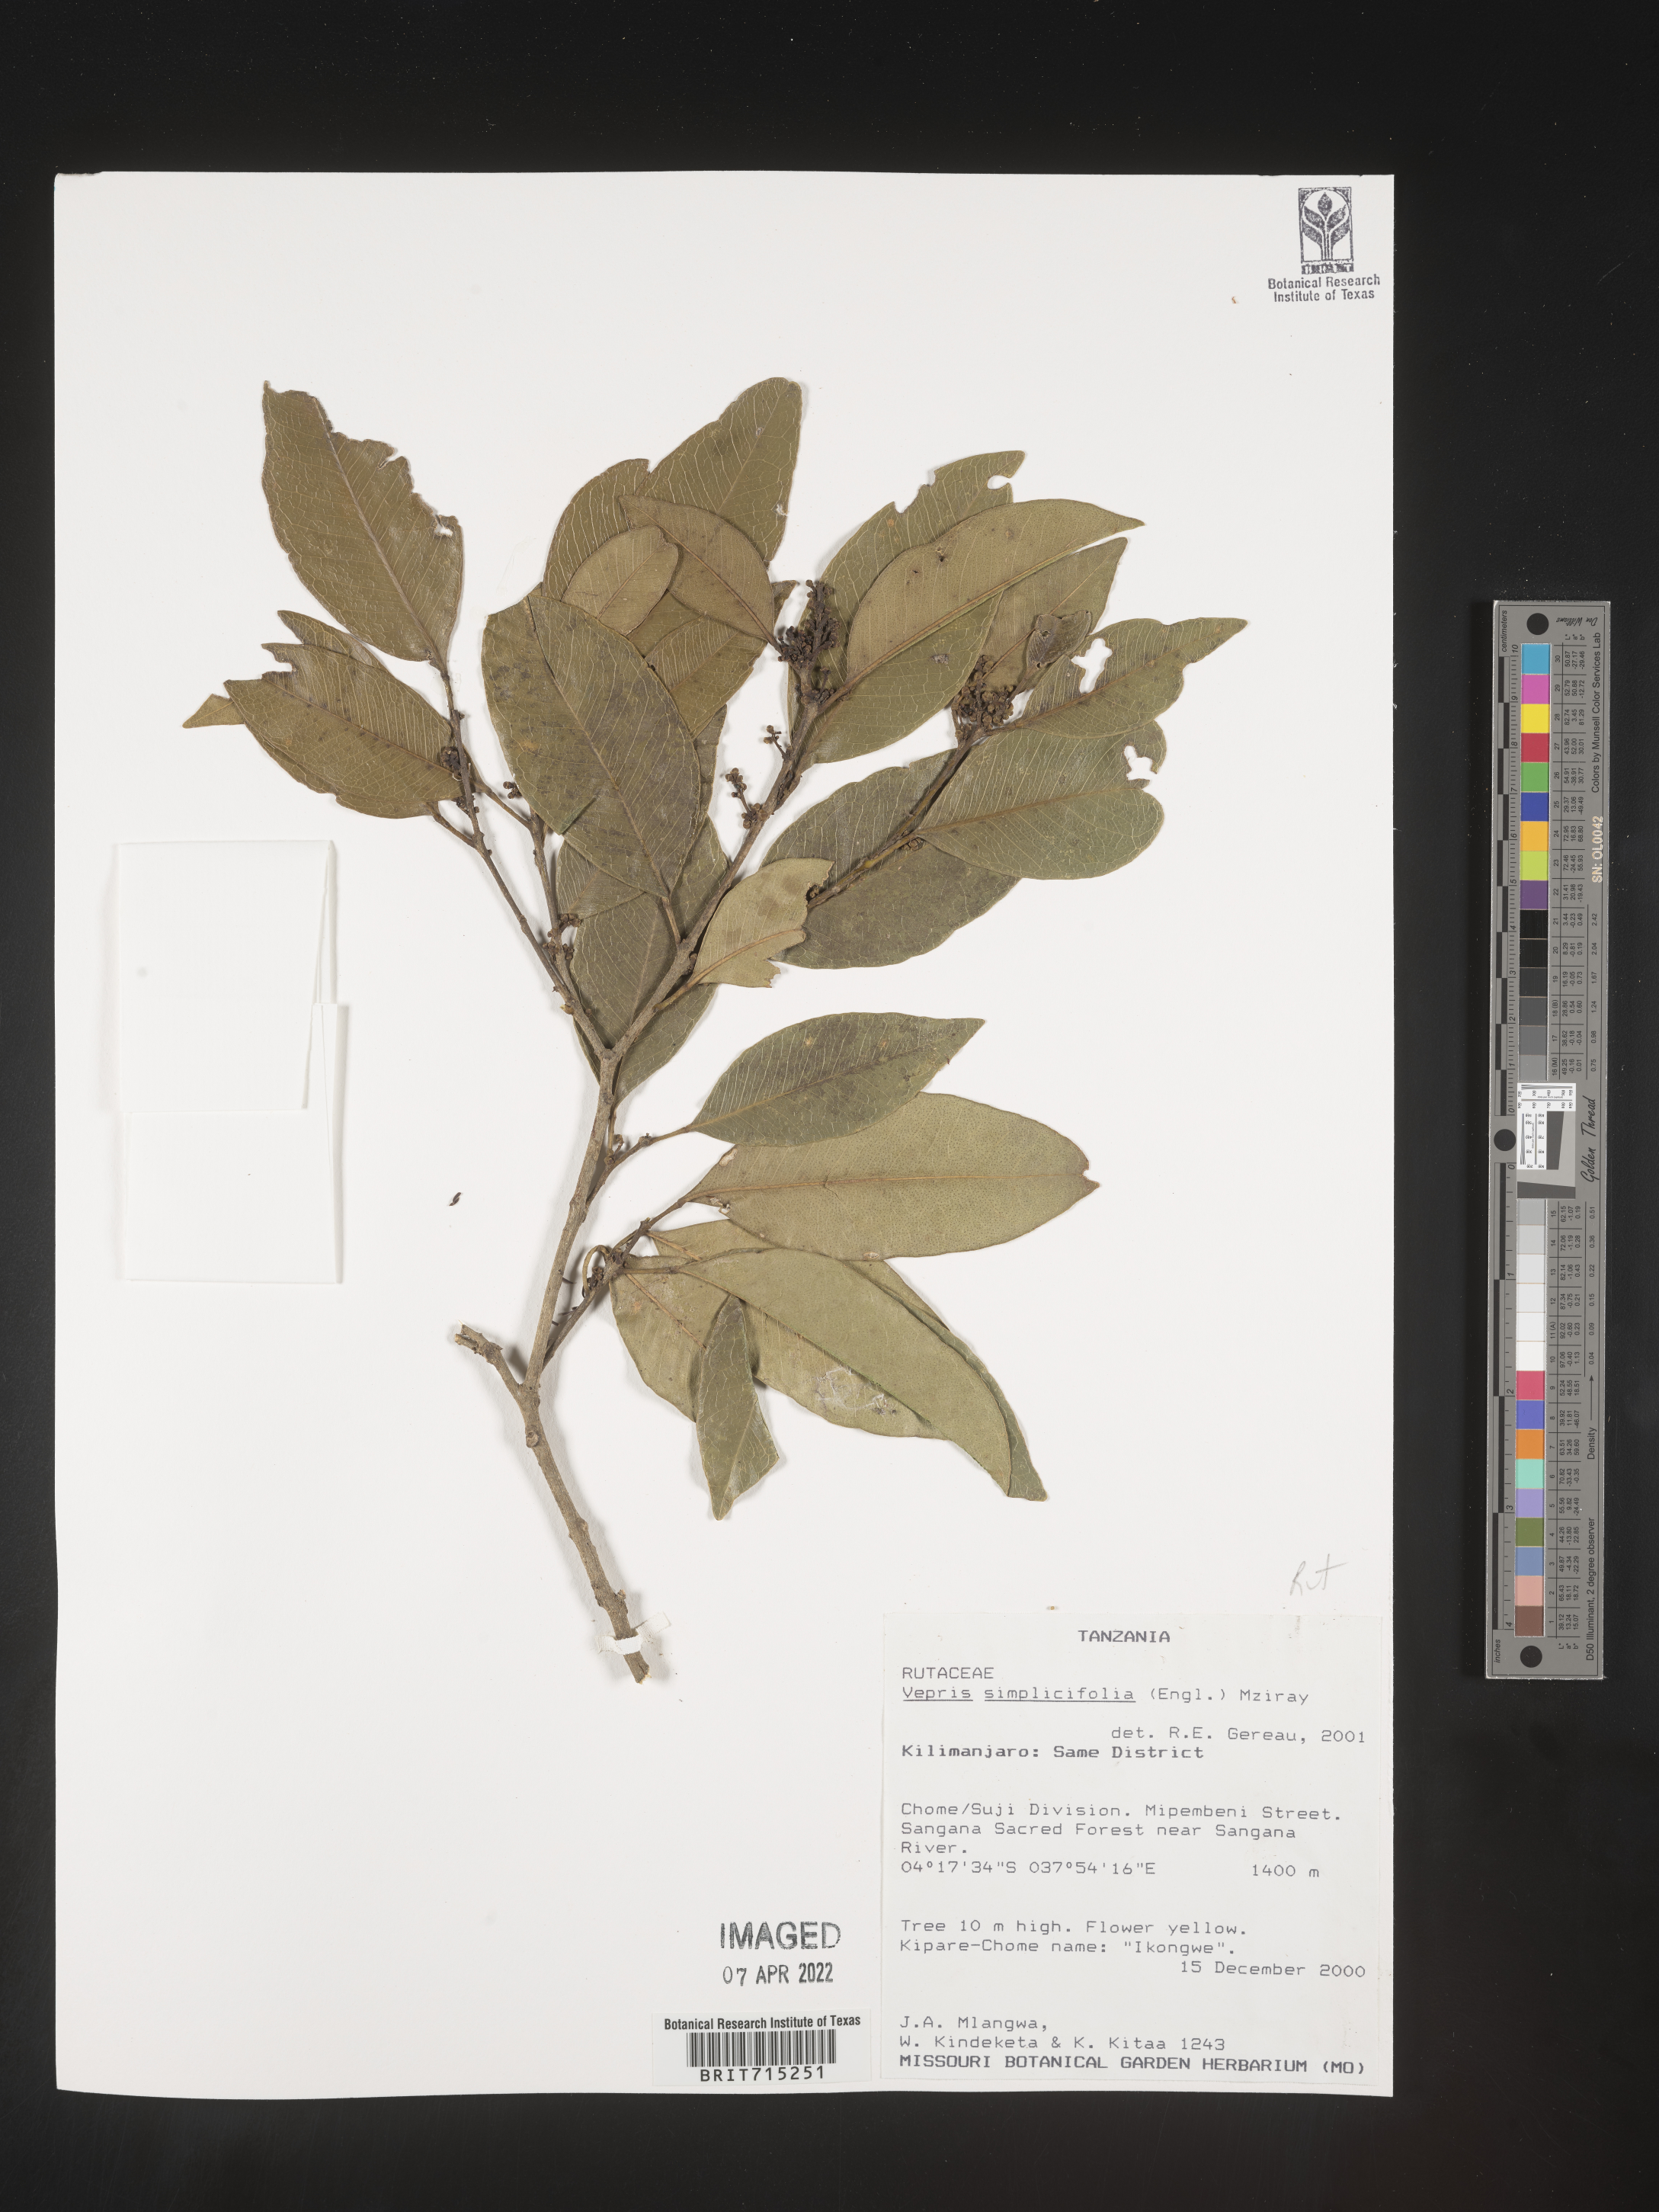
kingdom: Plantae
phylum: Tracheophyta
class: Magnoliopsida
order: Sapindales
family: Rutaceae
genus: Vepris
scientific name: Vepris
